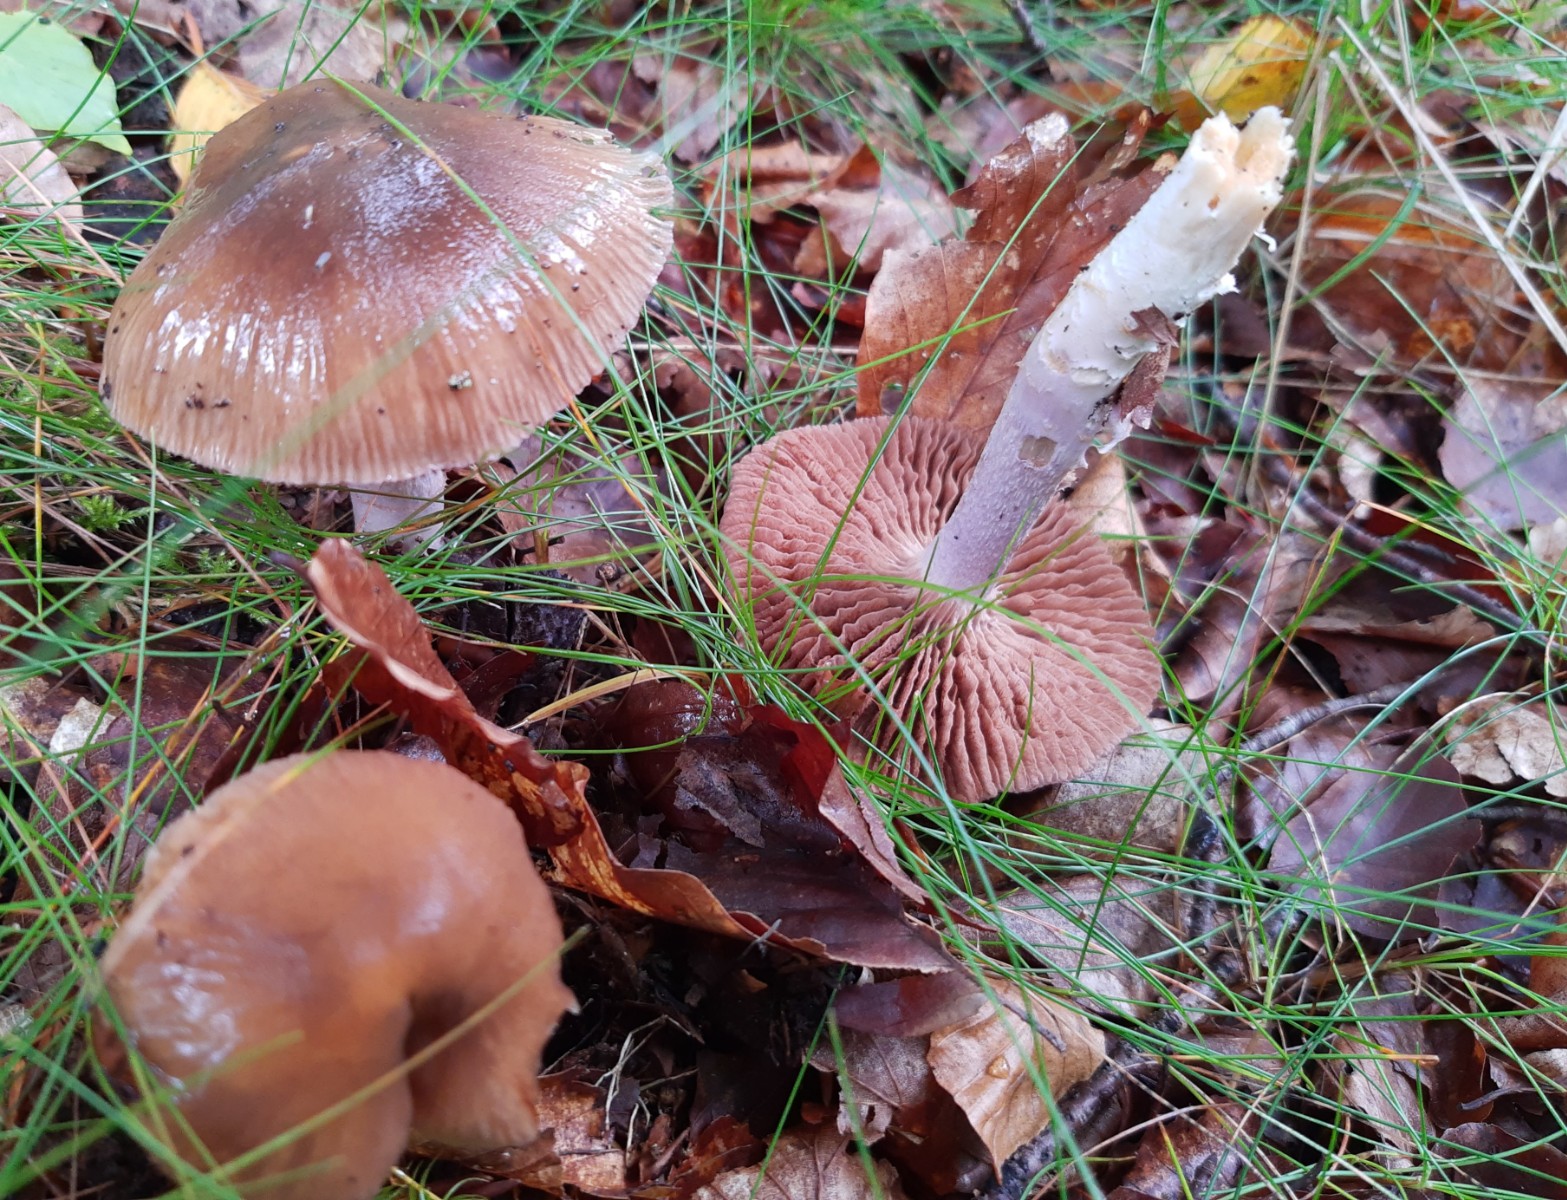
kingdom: Fungi
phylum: Basidiomycota
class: Agaricomycetes
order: Agaricales
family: Cortinariaceae
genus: Cortinarius
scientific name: Cortinarius elatior
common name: høj slørhat
